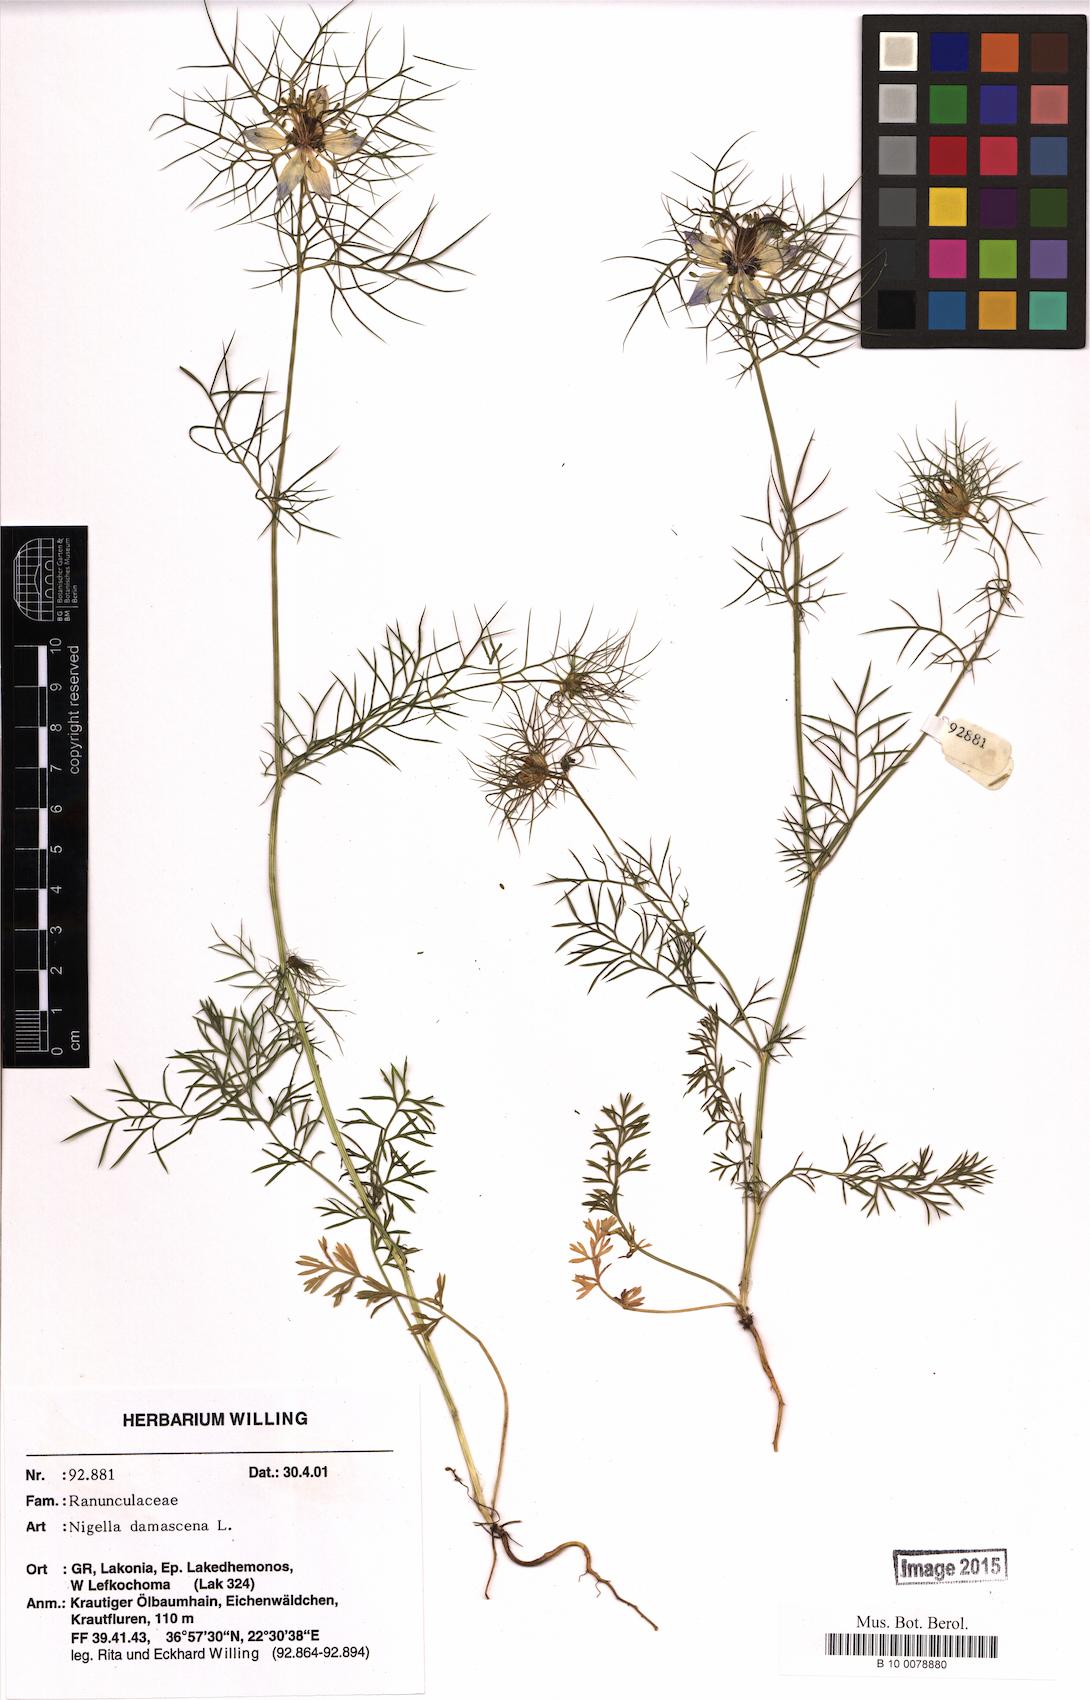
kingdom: Plantae
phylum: Tracheophyta
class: Magnoliopsida
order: Ranunculales
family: Ranunculaceae
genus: Nigella
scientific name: Nigella damascena
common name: Love-in-a-mist
